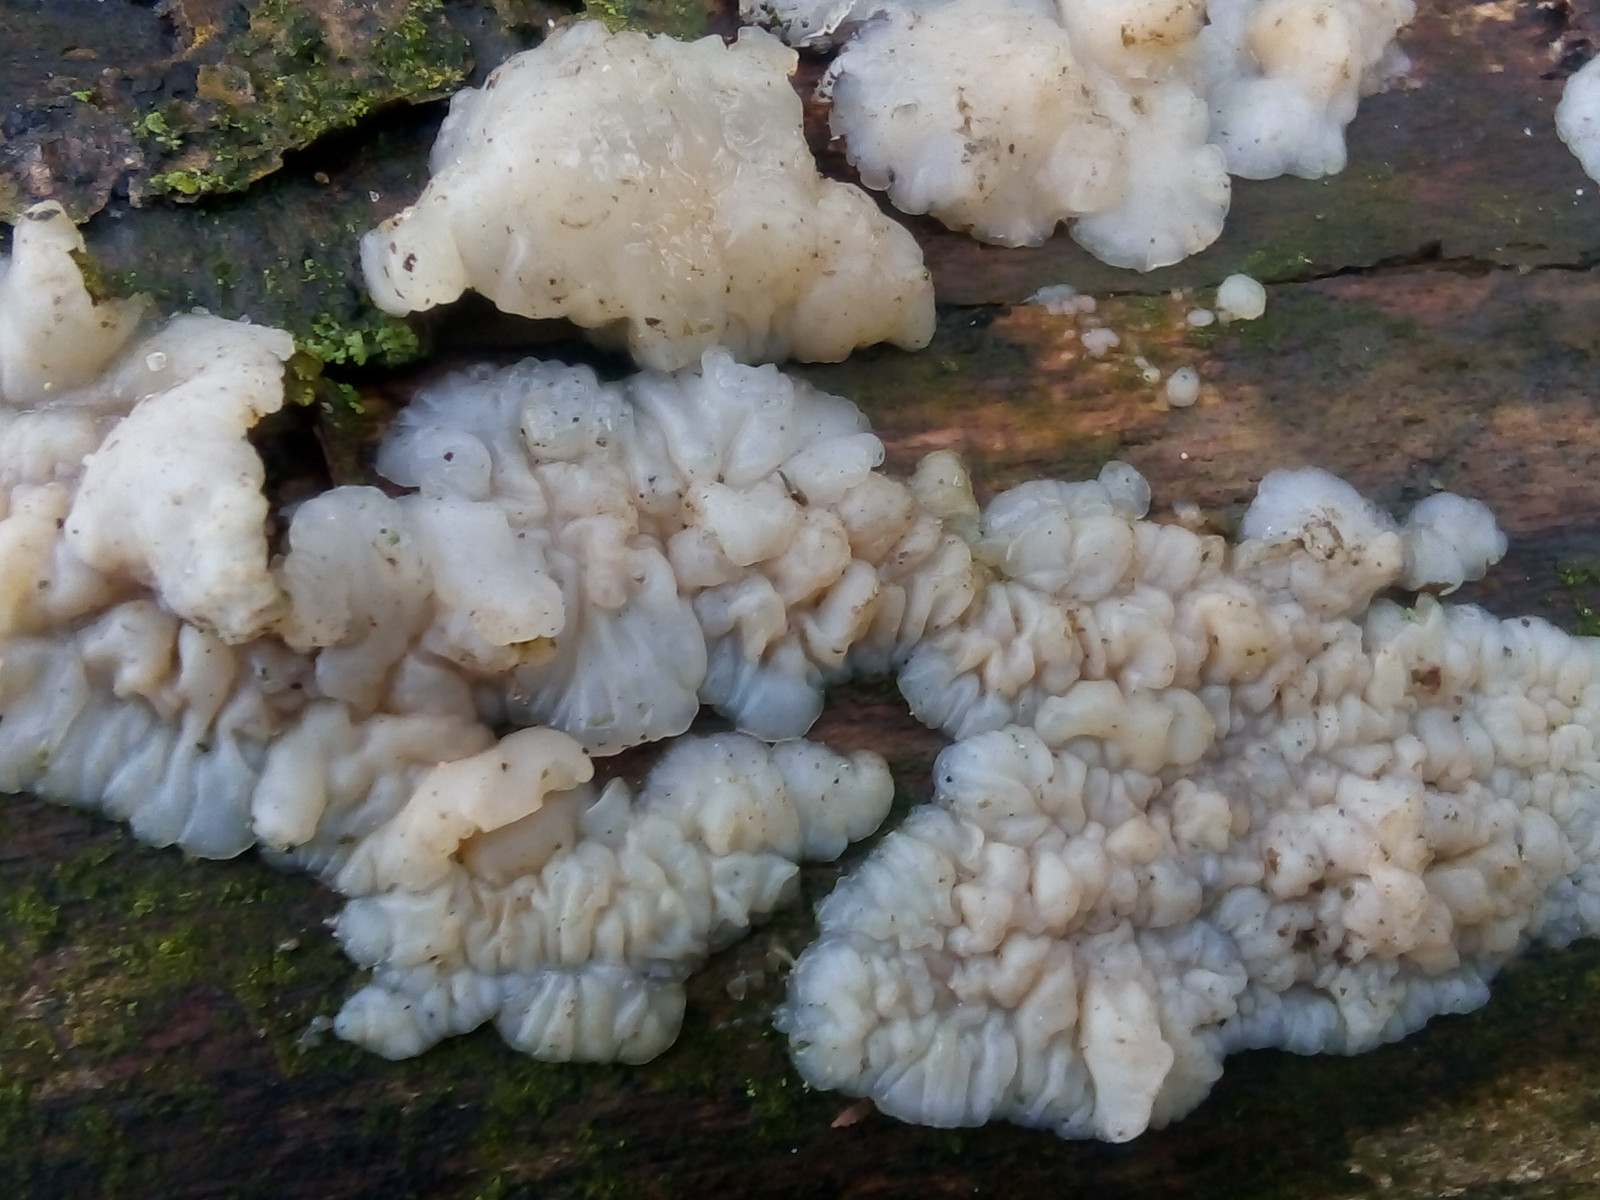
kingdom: Fungi
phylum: Basidiomycota
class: Agaricomycetes
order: Auriculariales
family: Auriculariaceae
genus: Exidia
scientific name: Exidia thuretiana
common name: hvidlig bævretop
